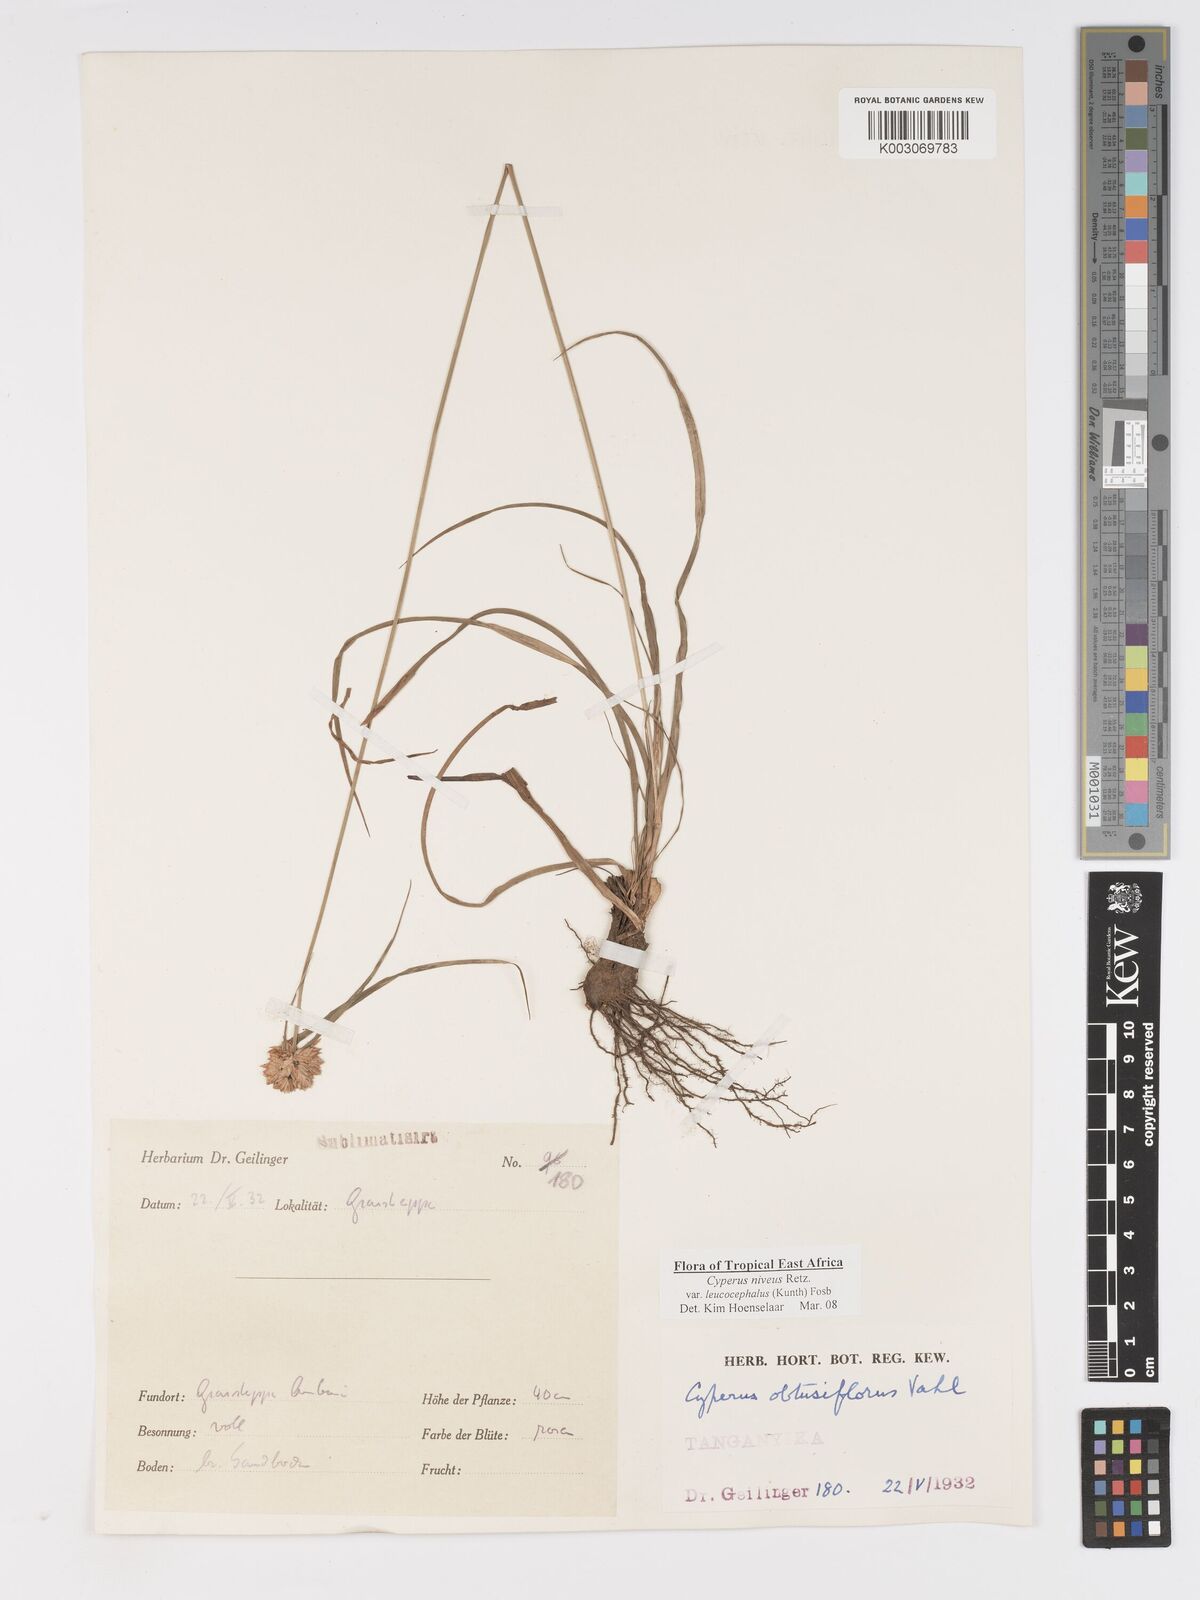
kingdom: Plantae
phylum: Tracheophyta
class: Liliopsida
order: Poales
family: Cyperaceae
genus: Cyperus
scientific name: Cyperus niveus
